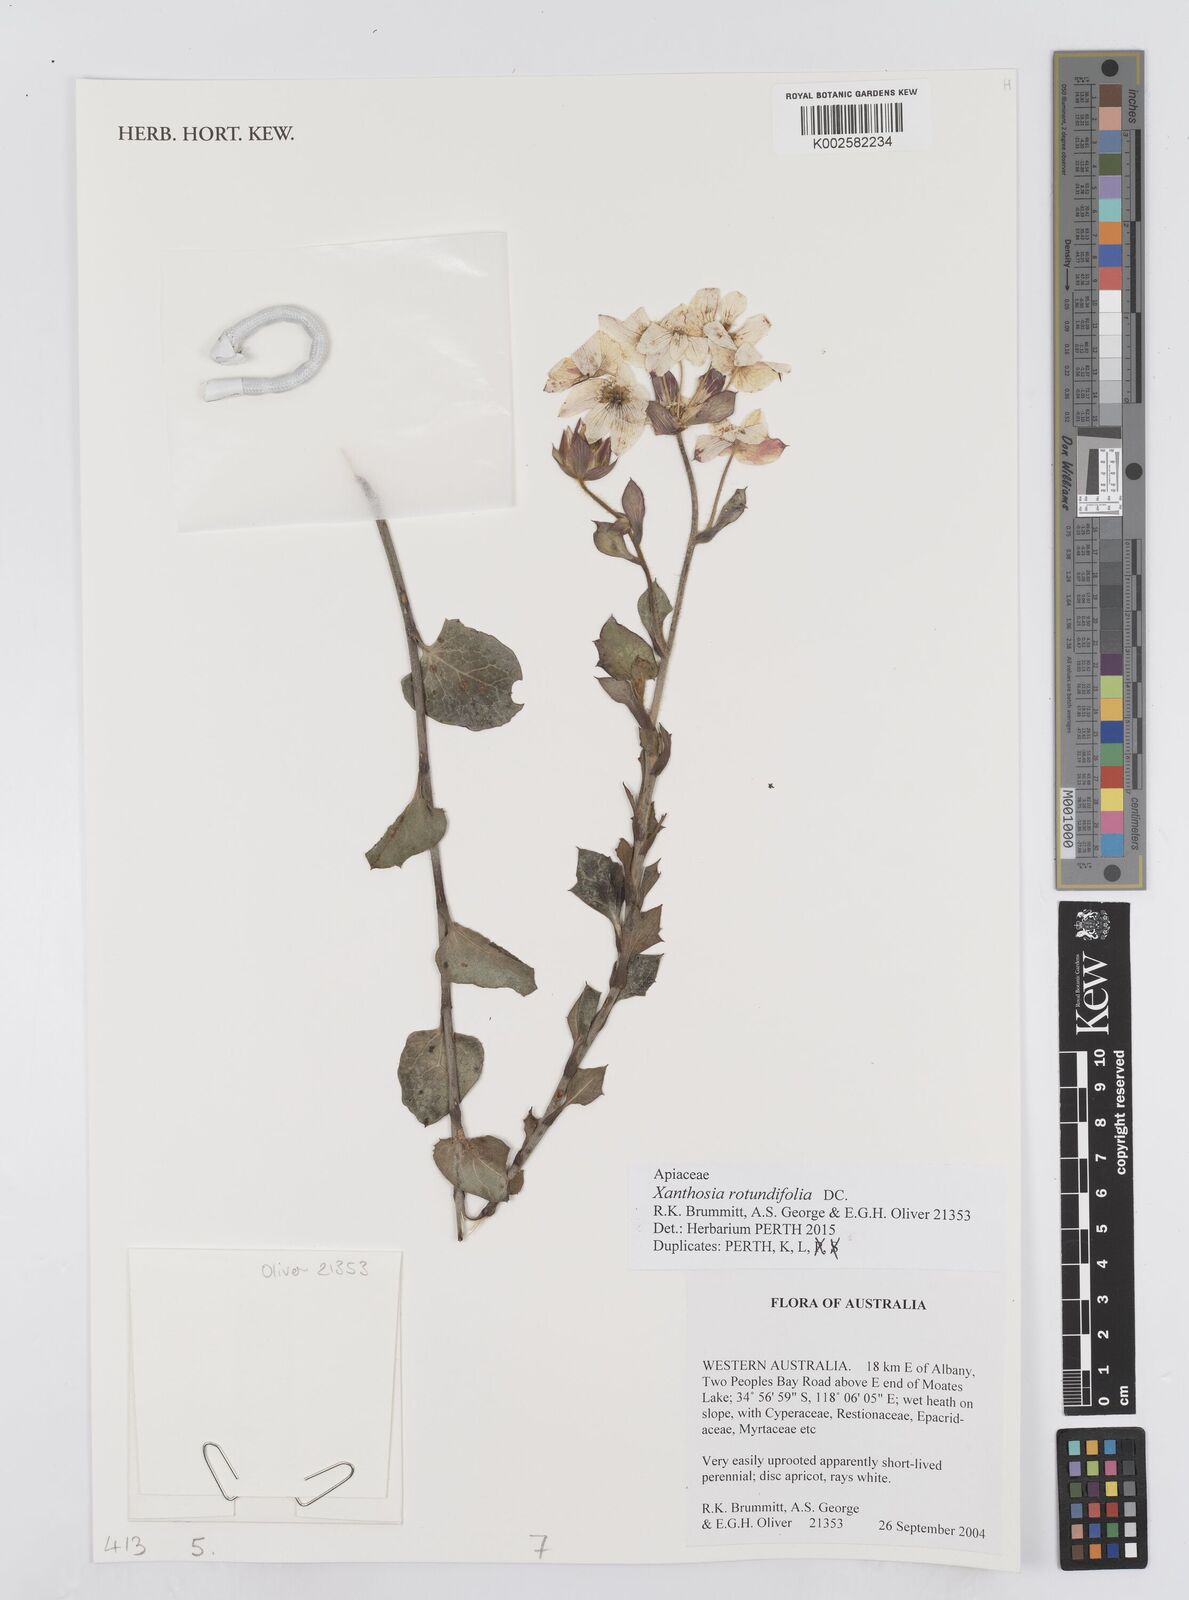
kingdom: Plantae
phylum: Tracheophyta
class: Magnoliopsida
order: Apiales
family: Apiaceae
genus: Xanthosia
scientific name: Xanthosia rotundifolia
